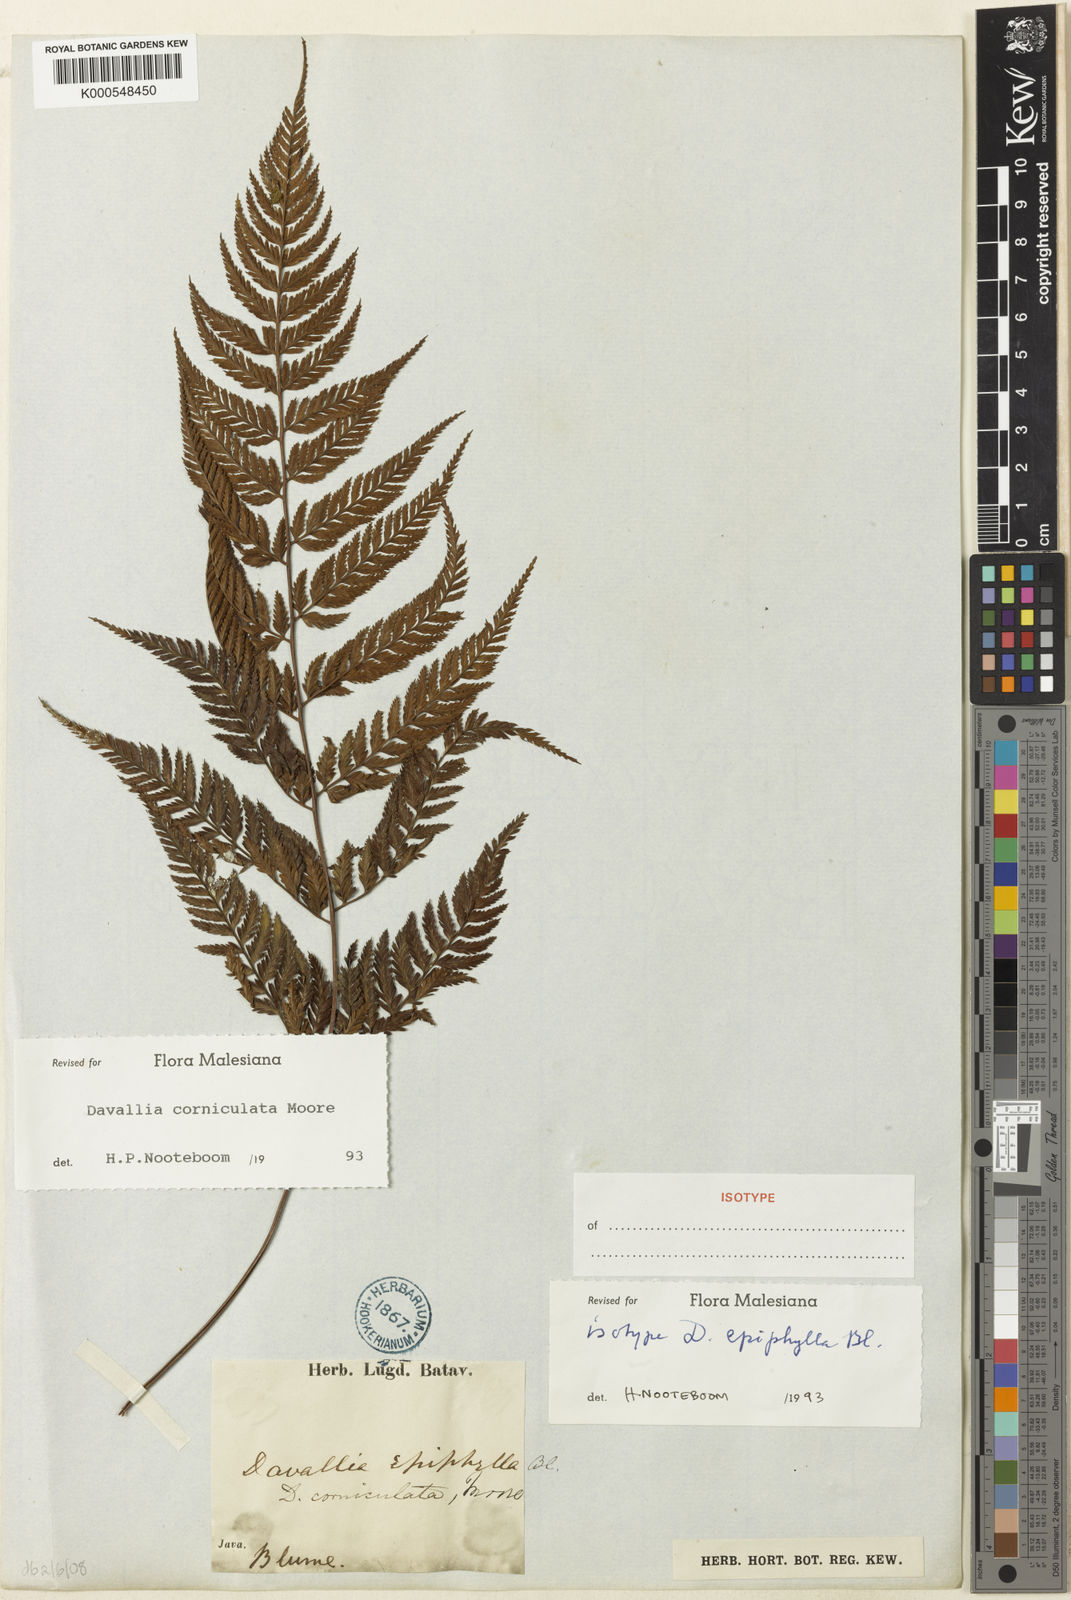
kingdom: Plantae
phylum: Tracheophyta
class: Polypodiopsida
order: Polypodiales
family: Davalliaceae
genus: Davallia
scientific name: Davallia corniculata
